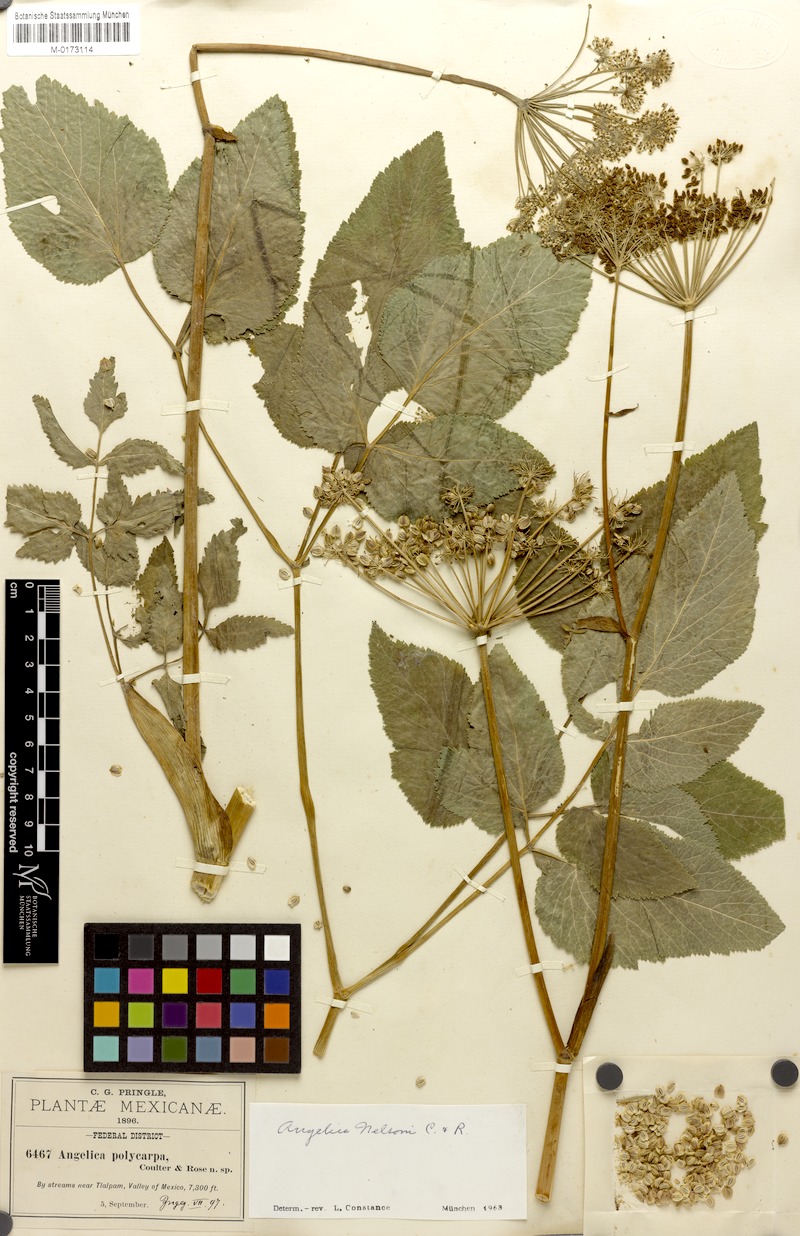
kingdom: Plantae
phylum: Tracheophyta
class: Magnoliopsida
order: Apiales
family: Apiaceae
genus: Angelica
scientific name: Angelica nelsonii
